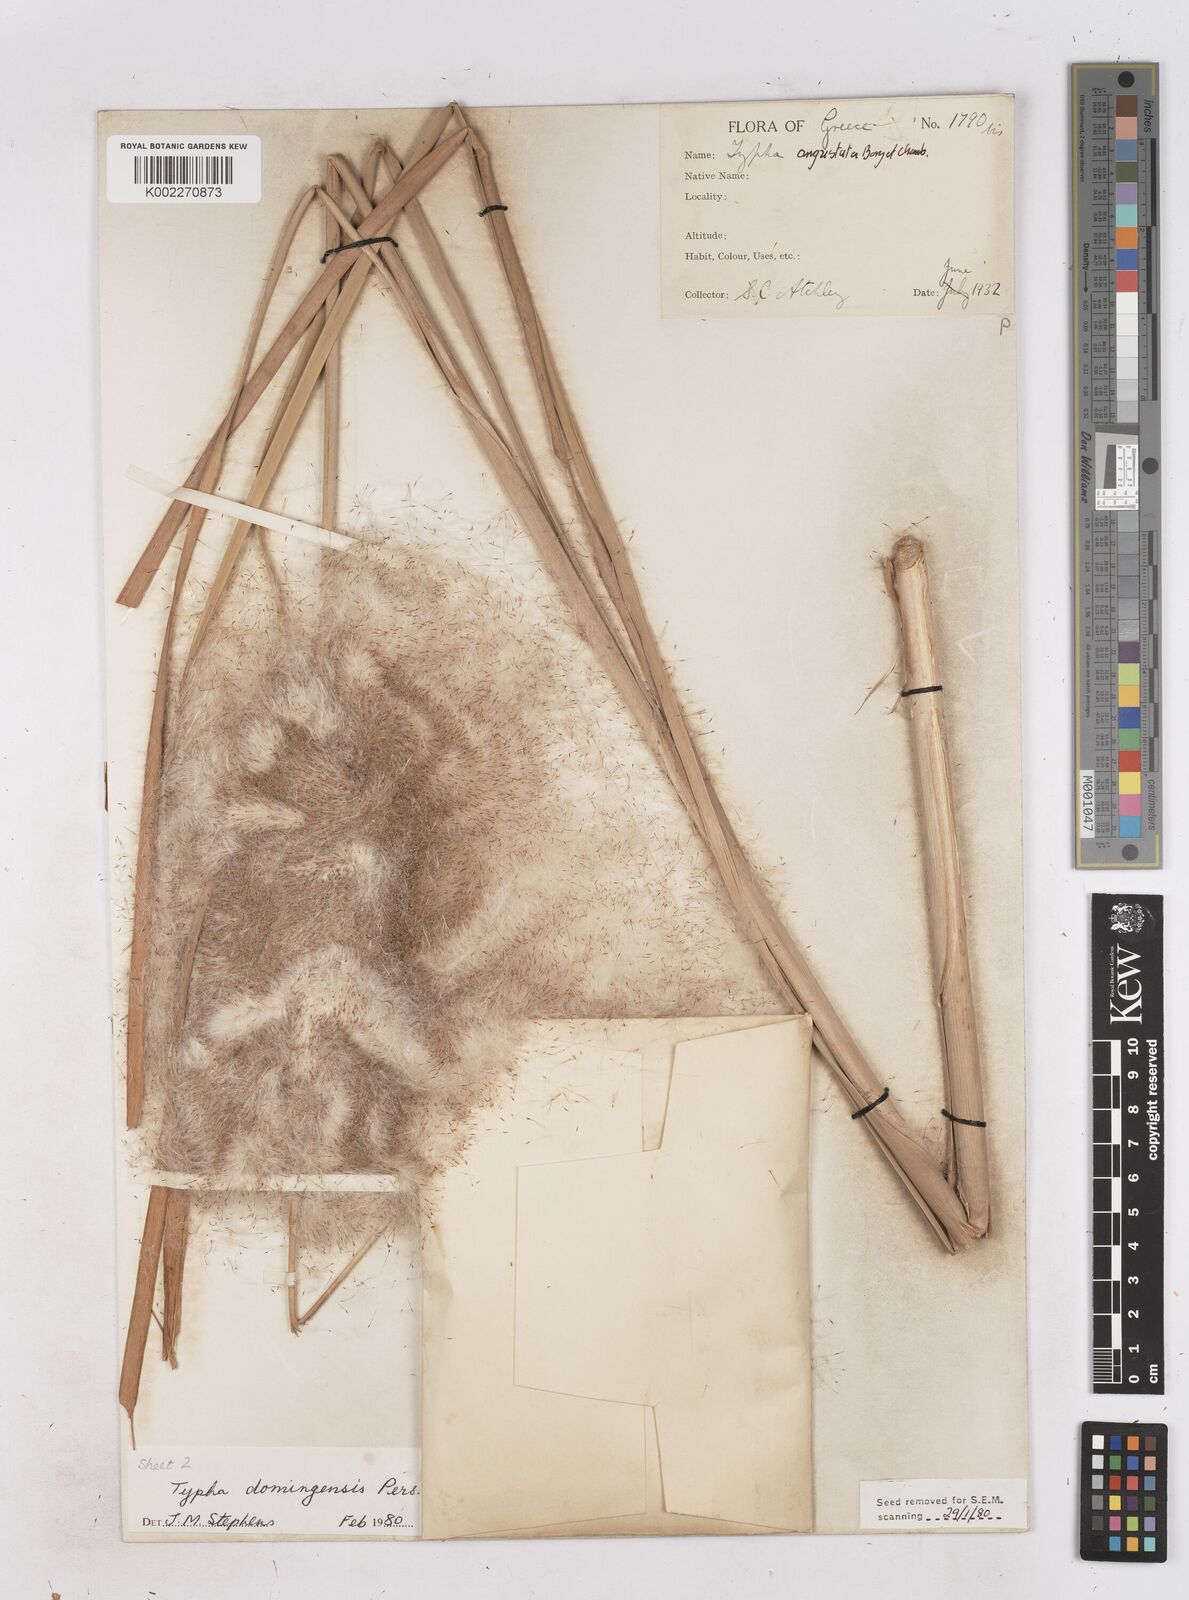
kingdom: Plantae
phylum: Tracheophyta
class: Liliopsida
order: Poales
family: Typhaceae
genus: Typha
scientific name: Typha domingensis
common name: Southern cattail
